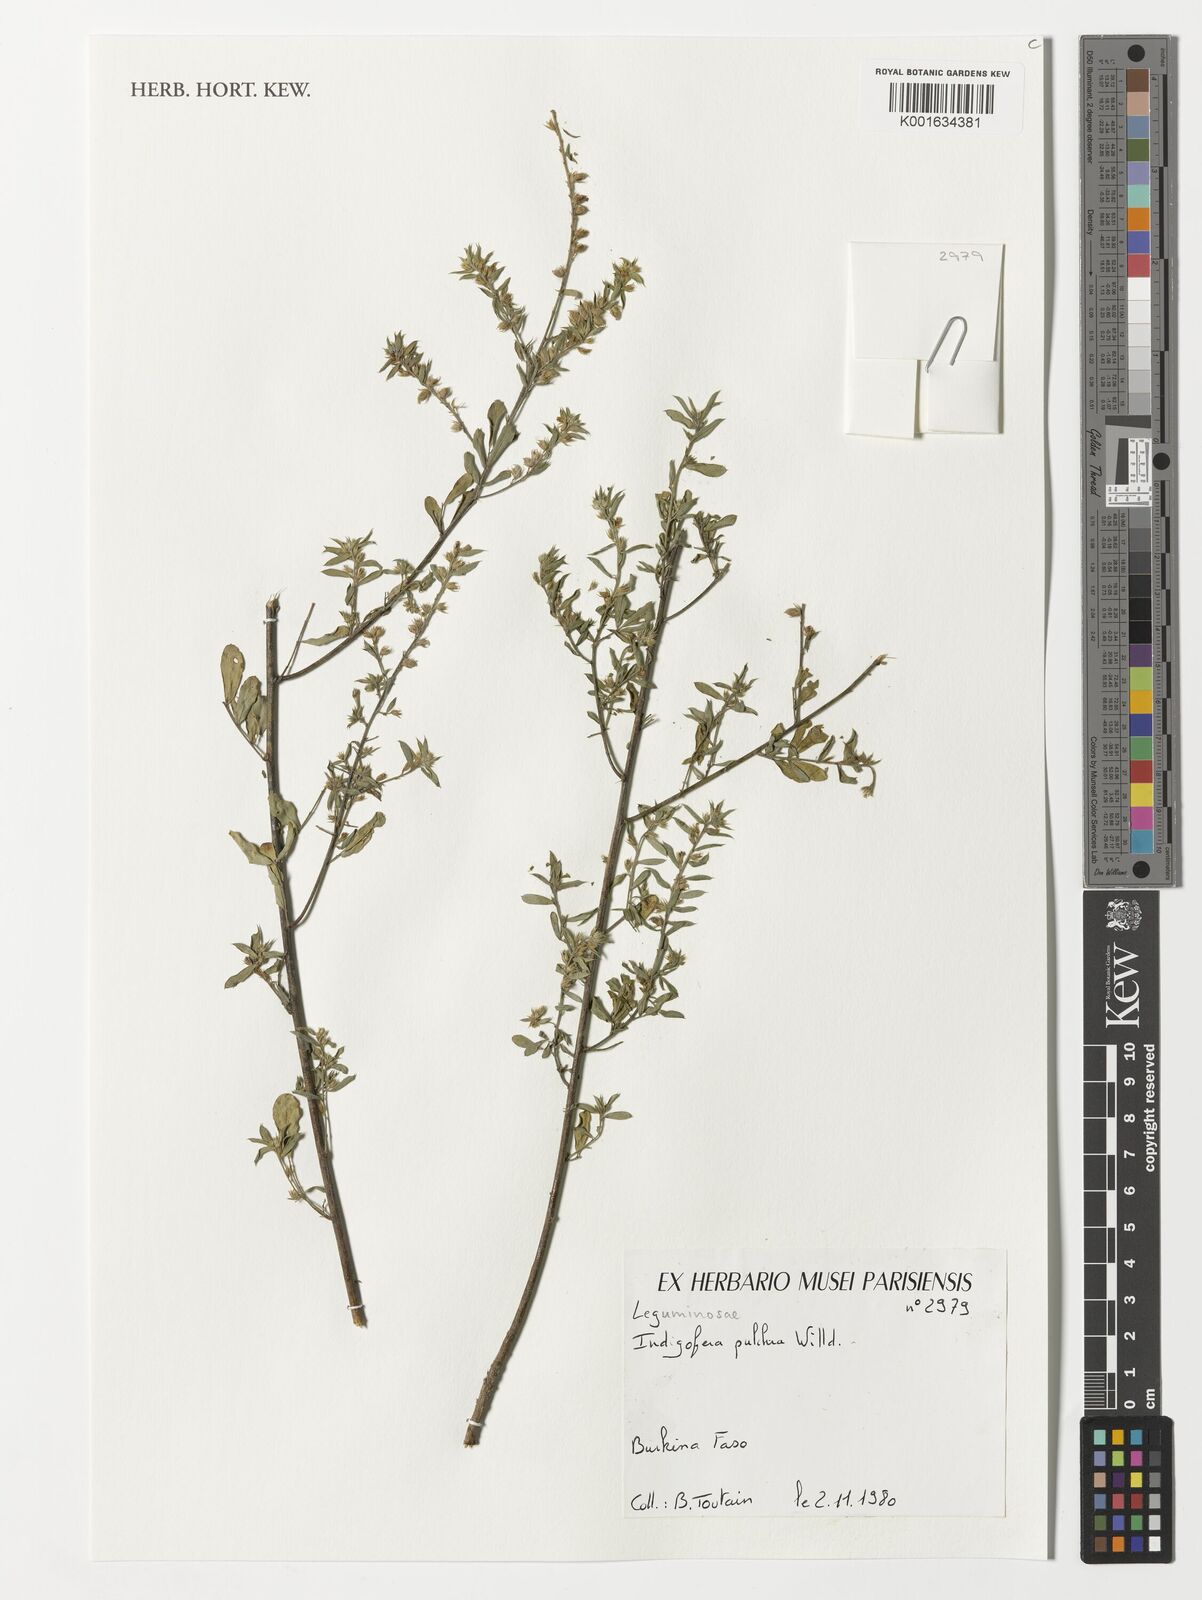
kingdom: Plantae
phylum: Tracheophyta
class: Magnoliopsida
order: Fabales
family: Fabaceae
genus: Indigofera
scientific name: Indigofera pulchra
